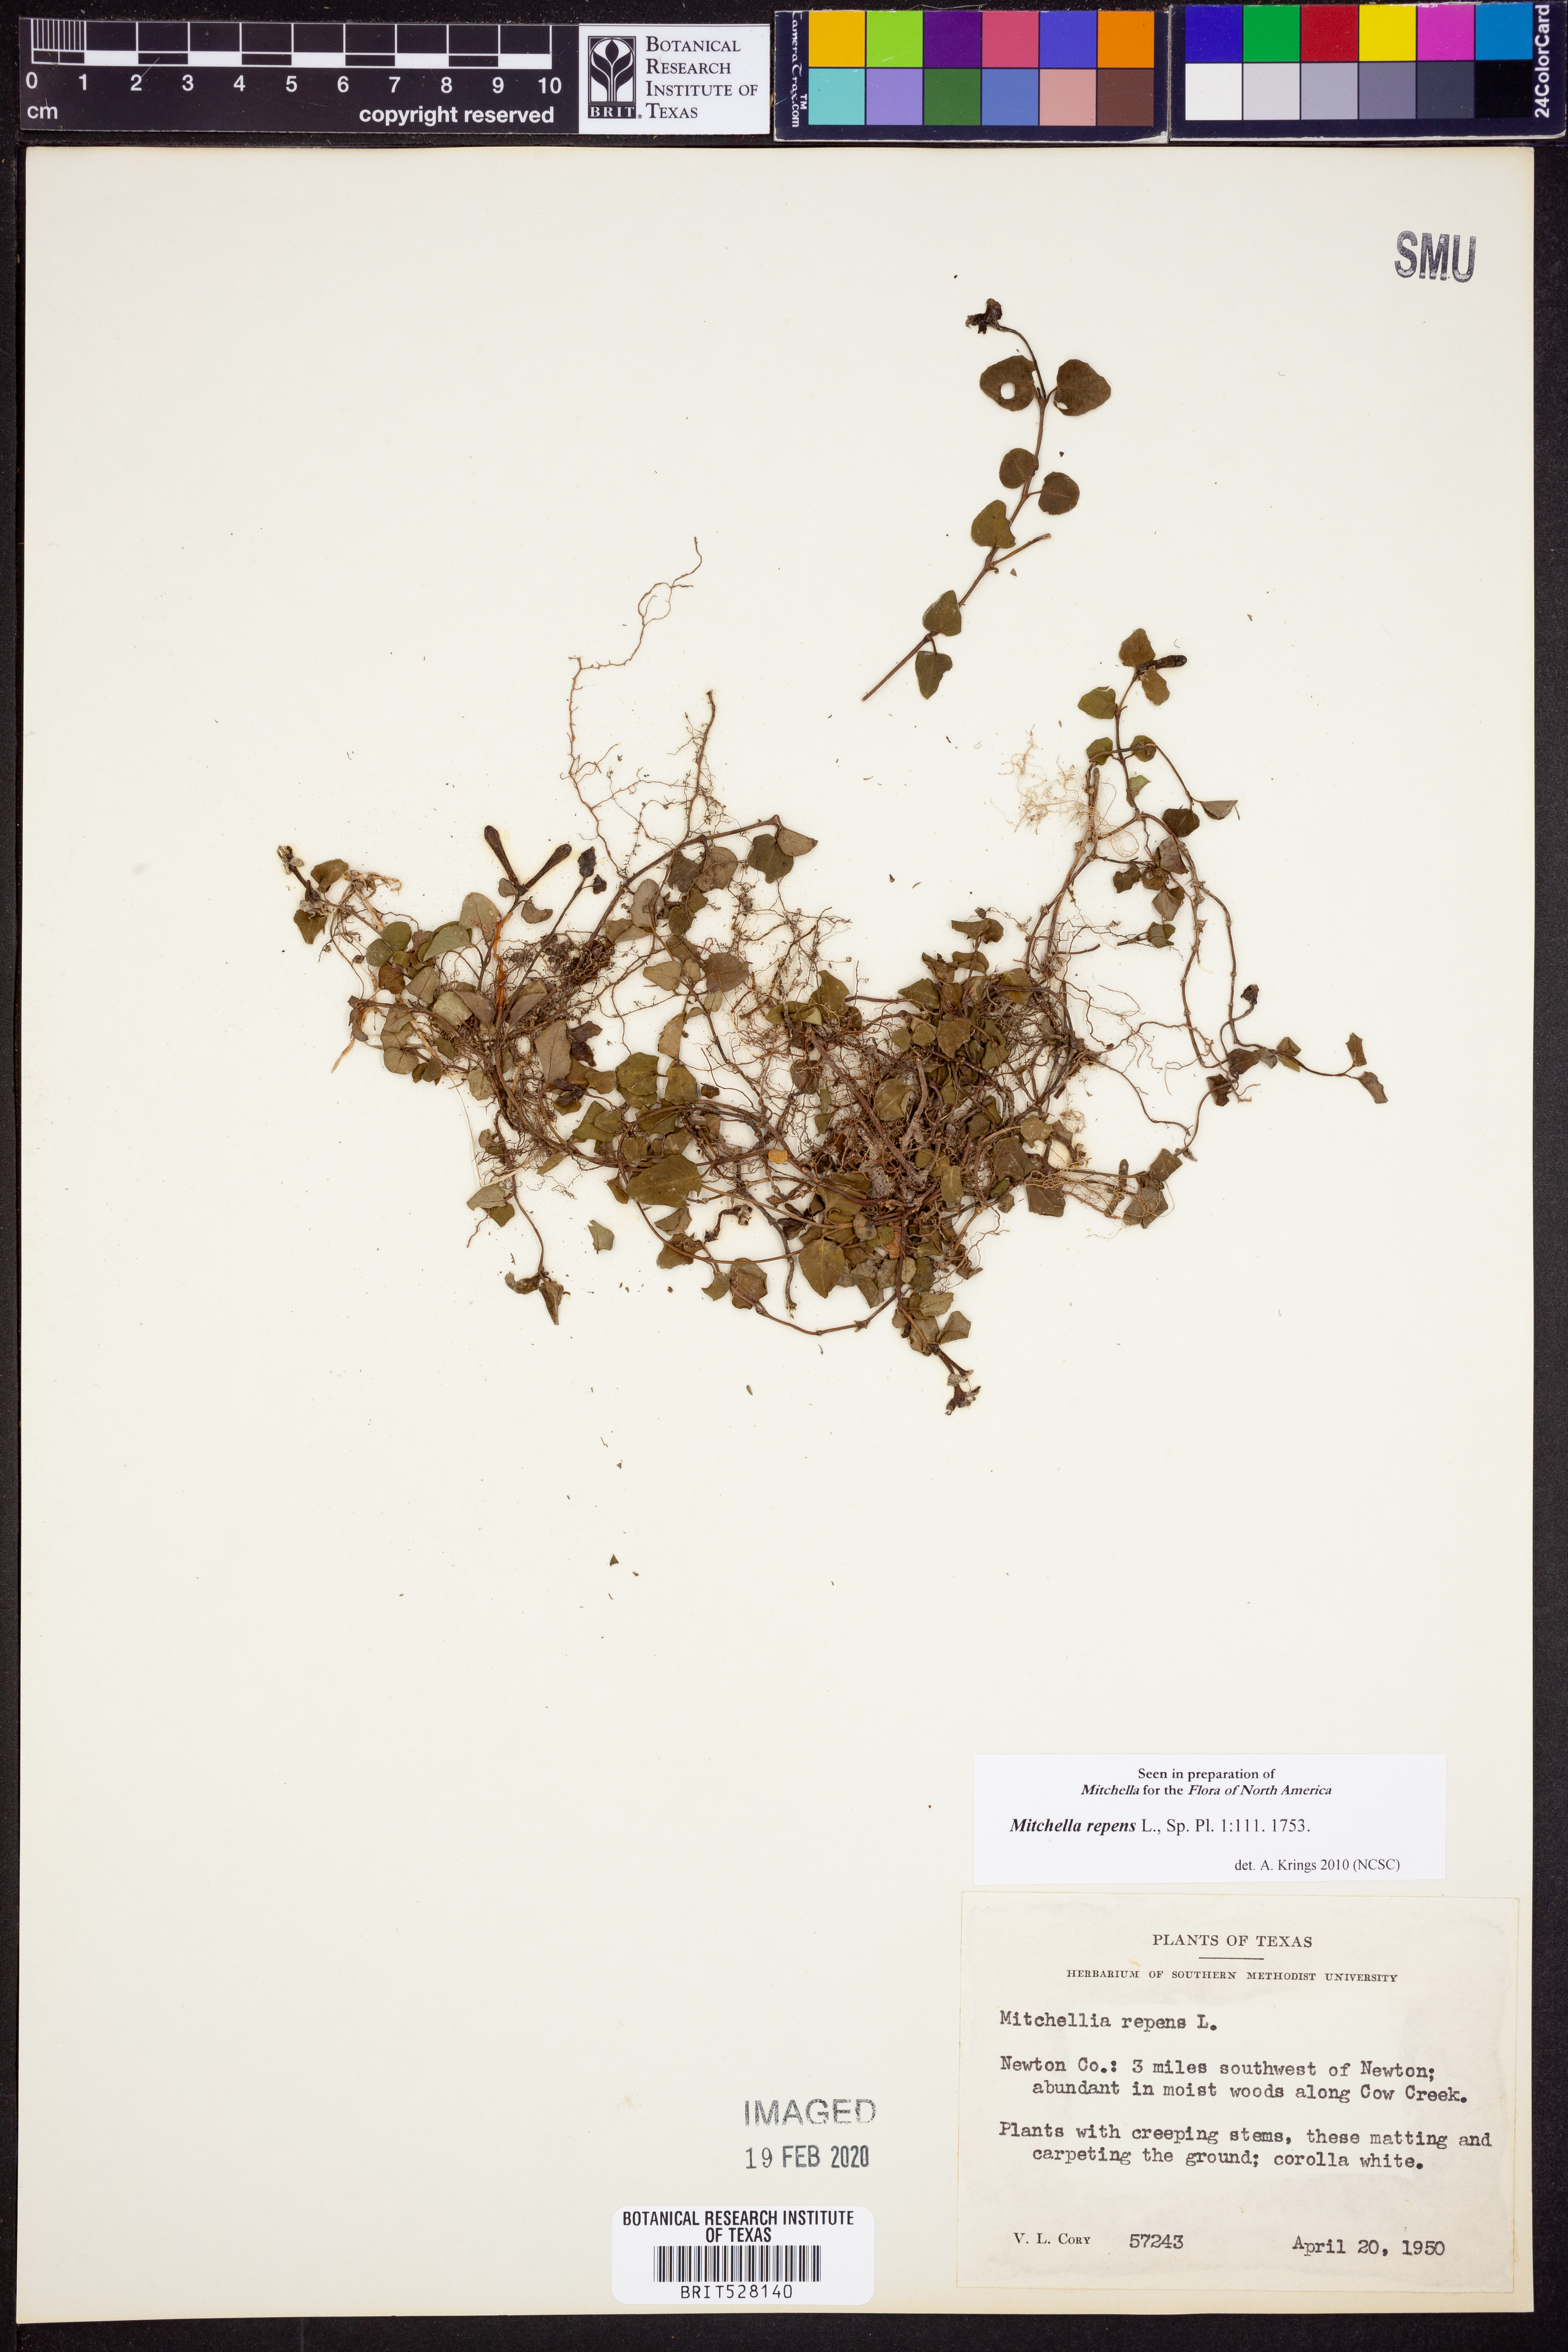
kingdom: Plantae
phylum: Tracheophyta
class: Magnoliopsida
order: Gentianales
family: Rubiaceae
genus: Mitchella
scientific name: Mitchella repens
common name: Partridge-berry
